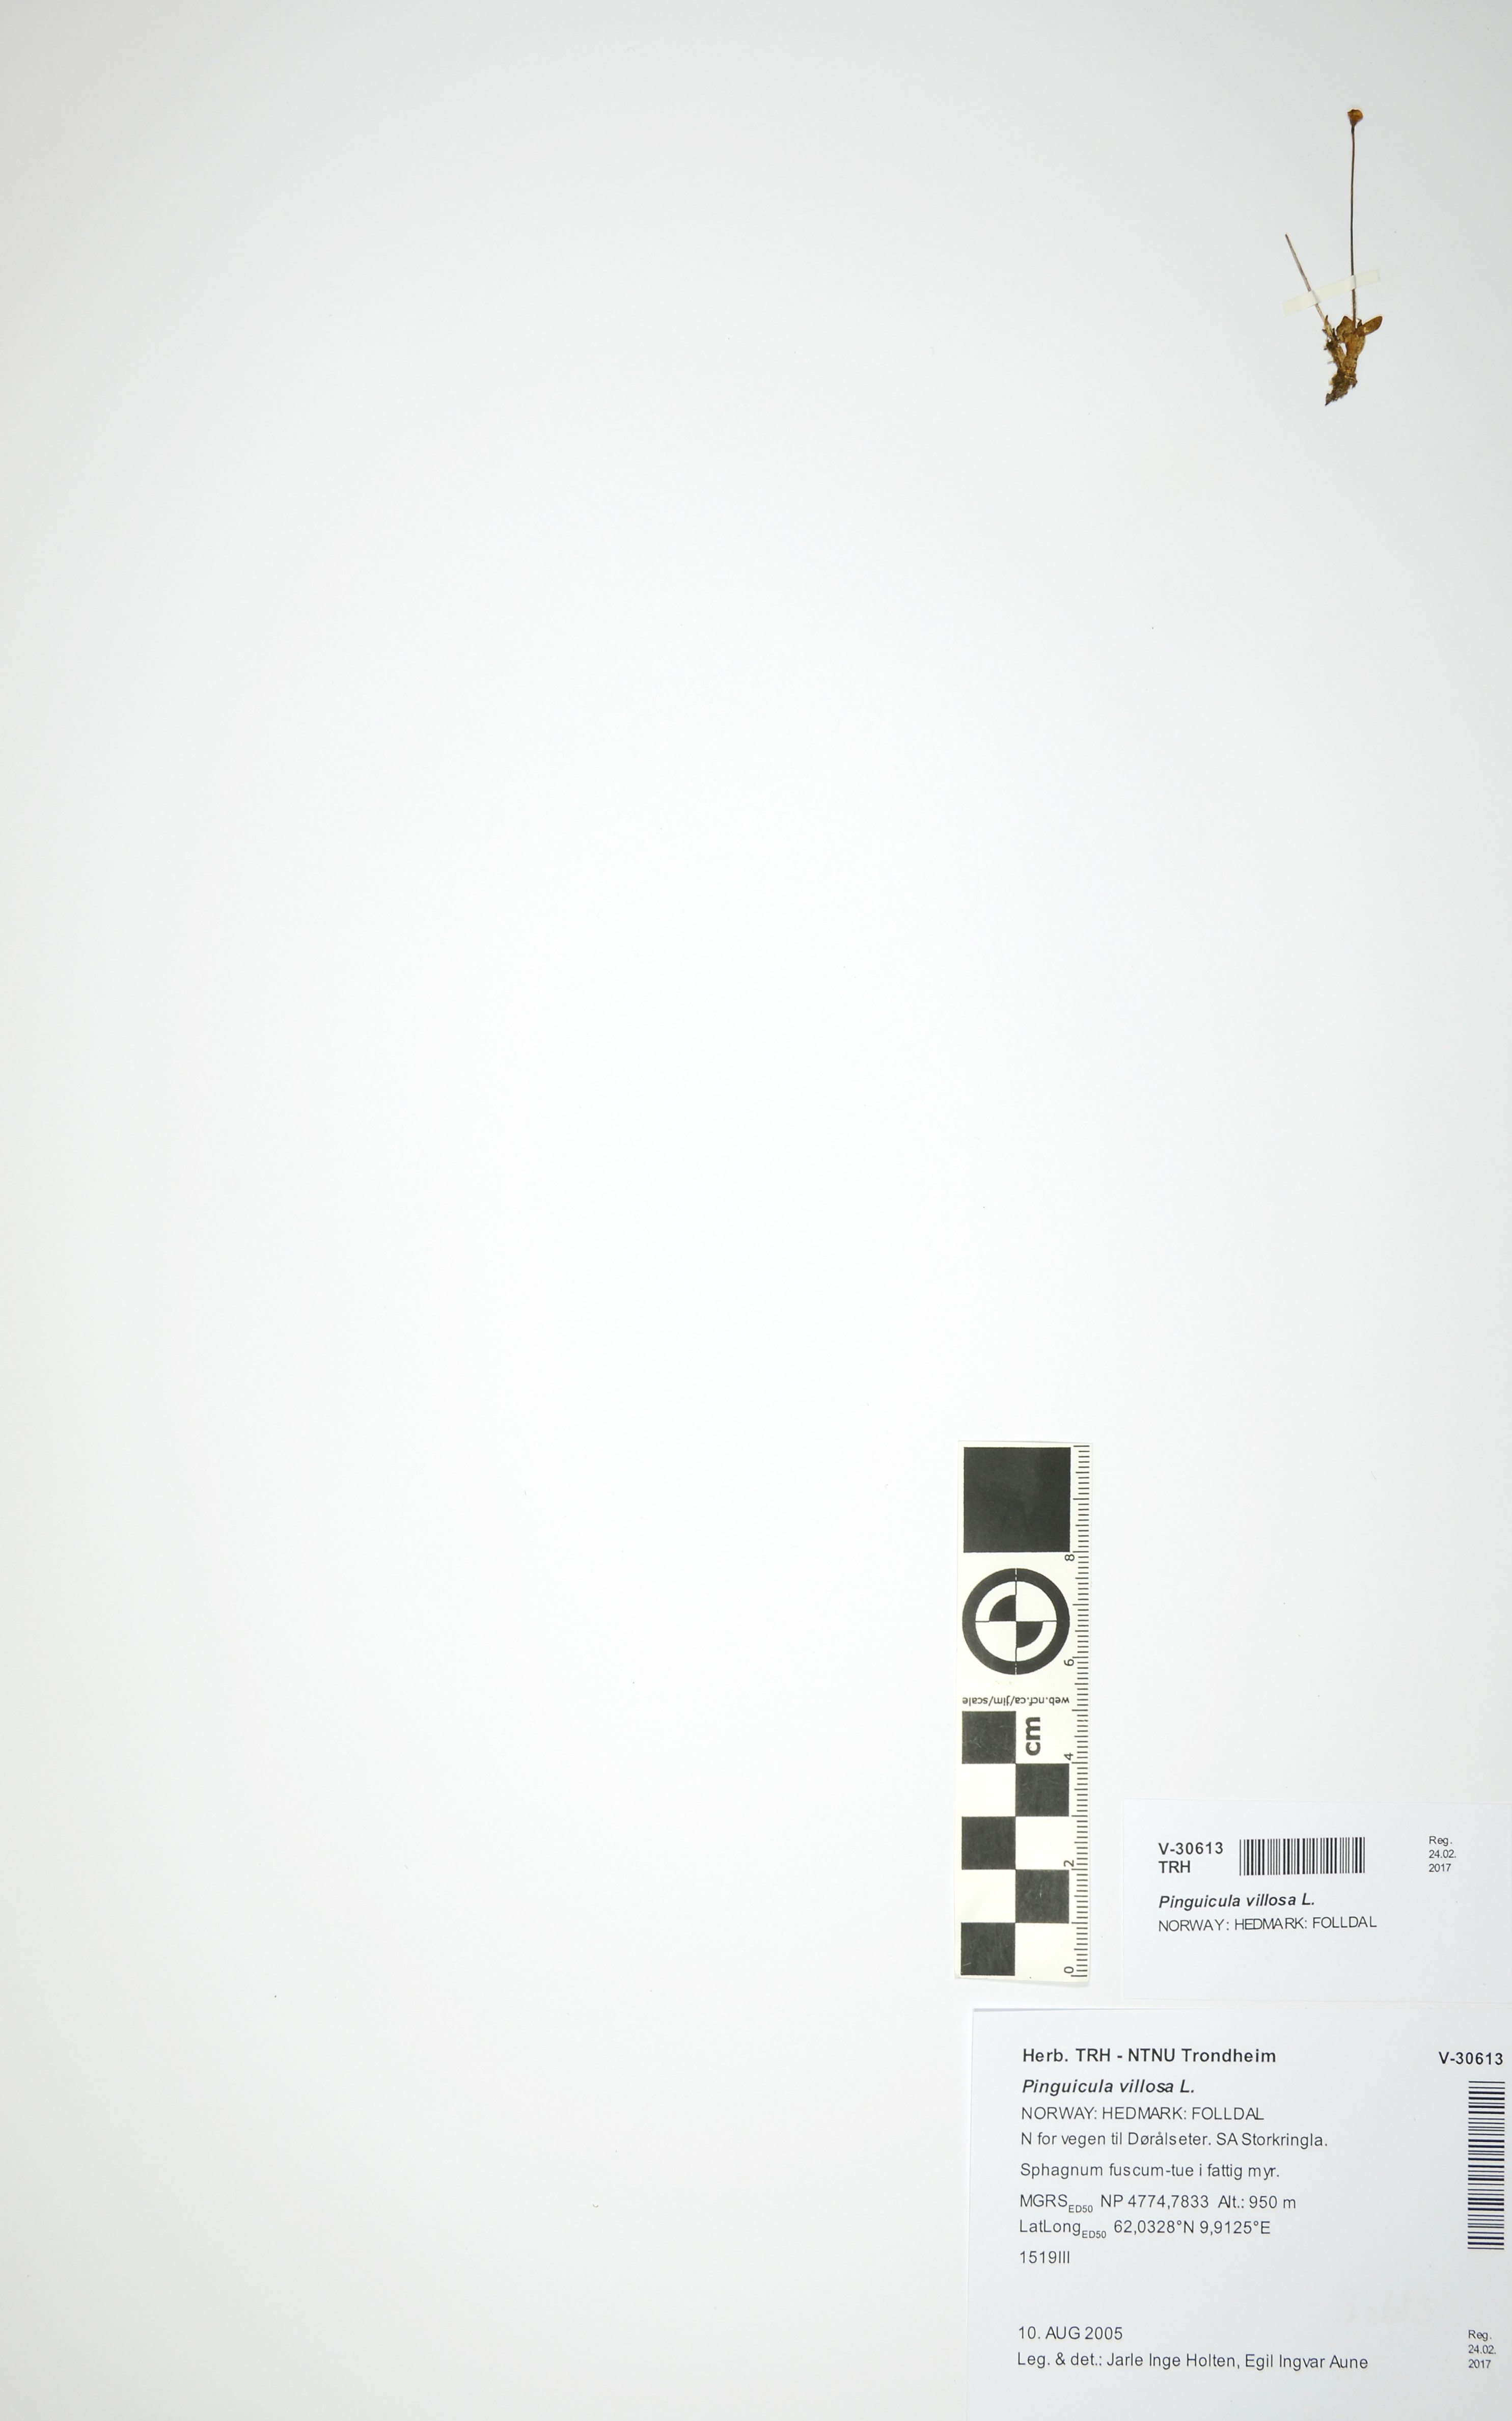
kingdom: Plantae
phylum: Tracheophyta
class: Magnoliopsida
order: Lamiales
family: Lentibulariaceae
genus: Pinguicula
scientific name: Pinguicula villosa
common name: Hairy butterwort
